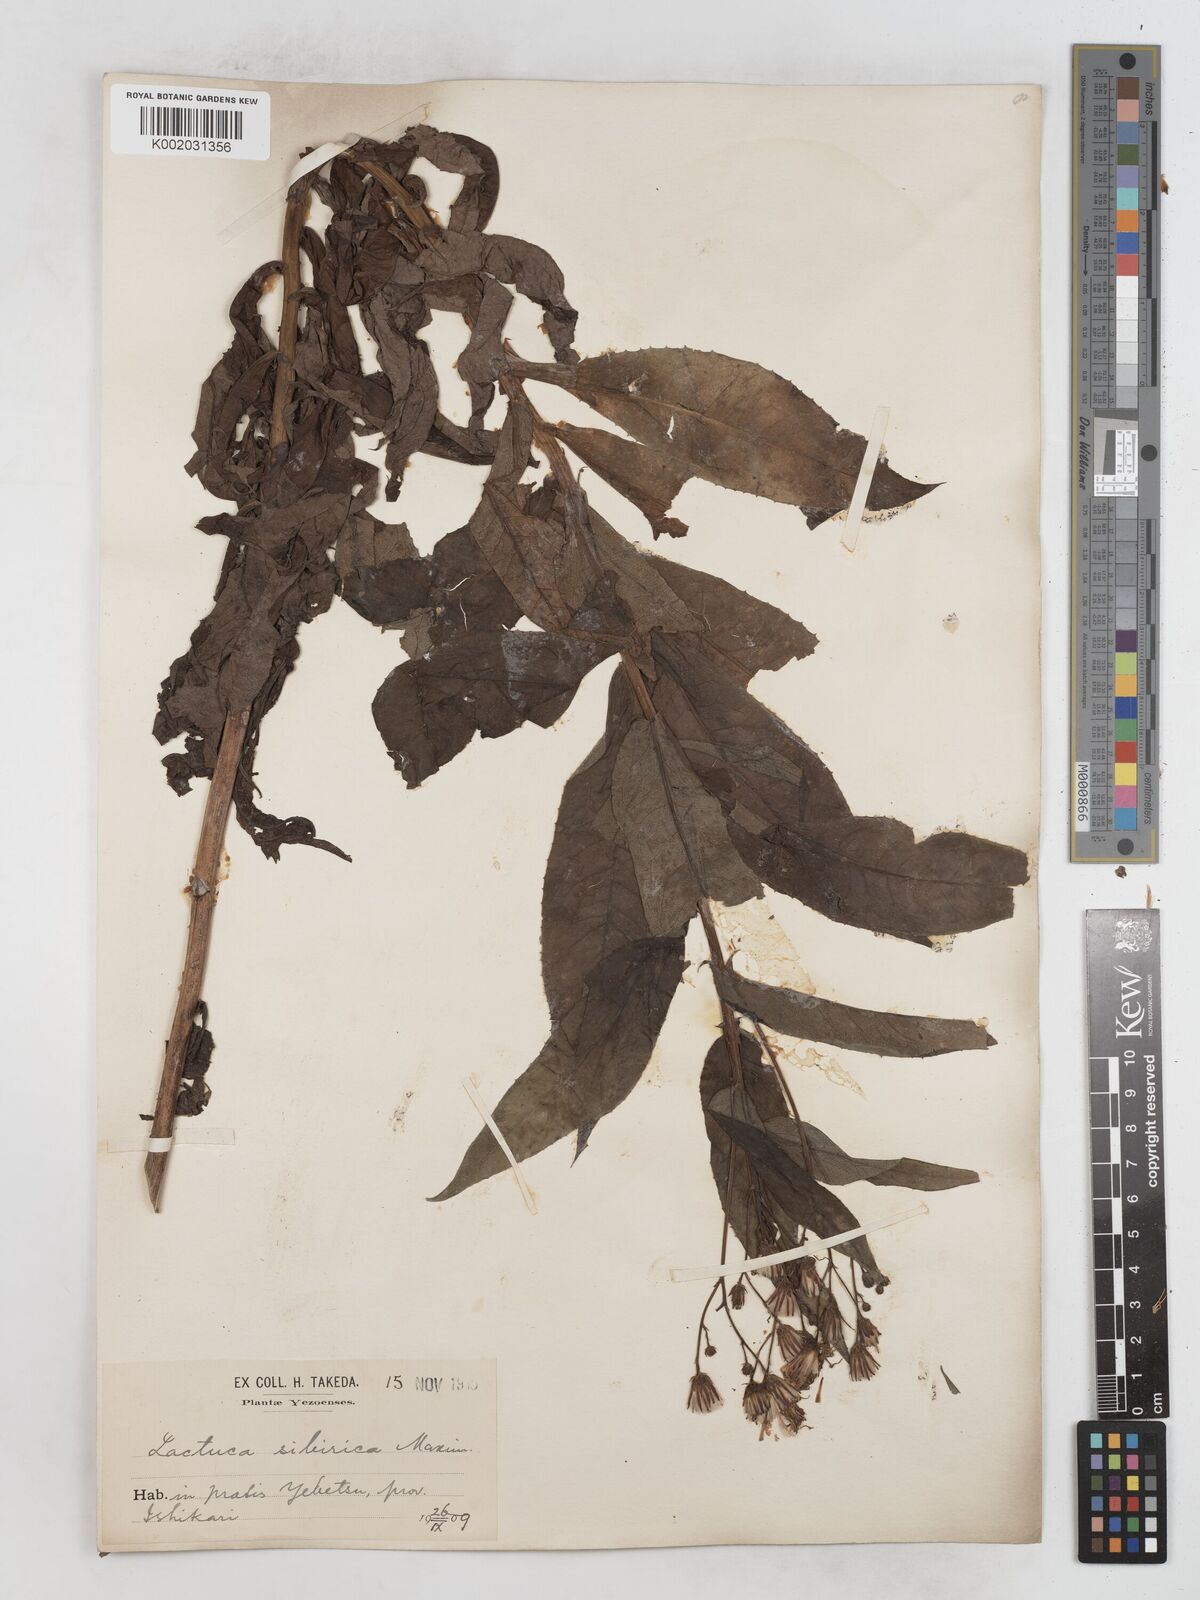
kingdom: Plantae
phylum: Tracheophyta
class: Magnoliopsida
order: Asterales
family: Asteraceae
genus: Lactuca
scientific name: Lactuca sibirica
